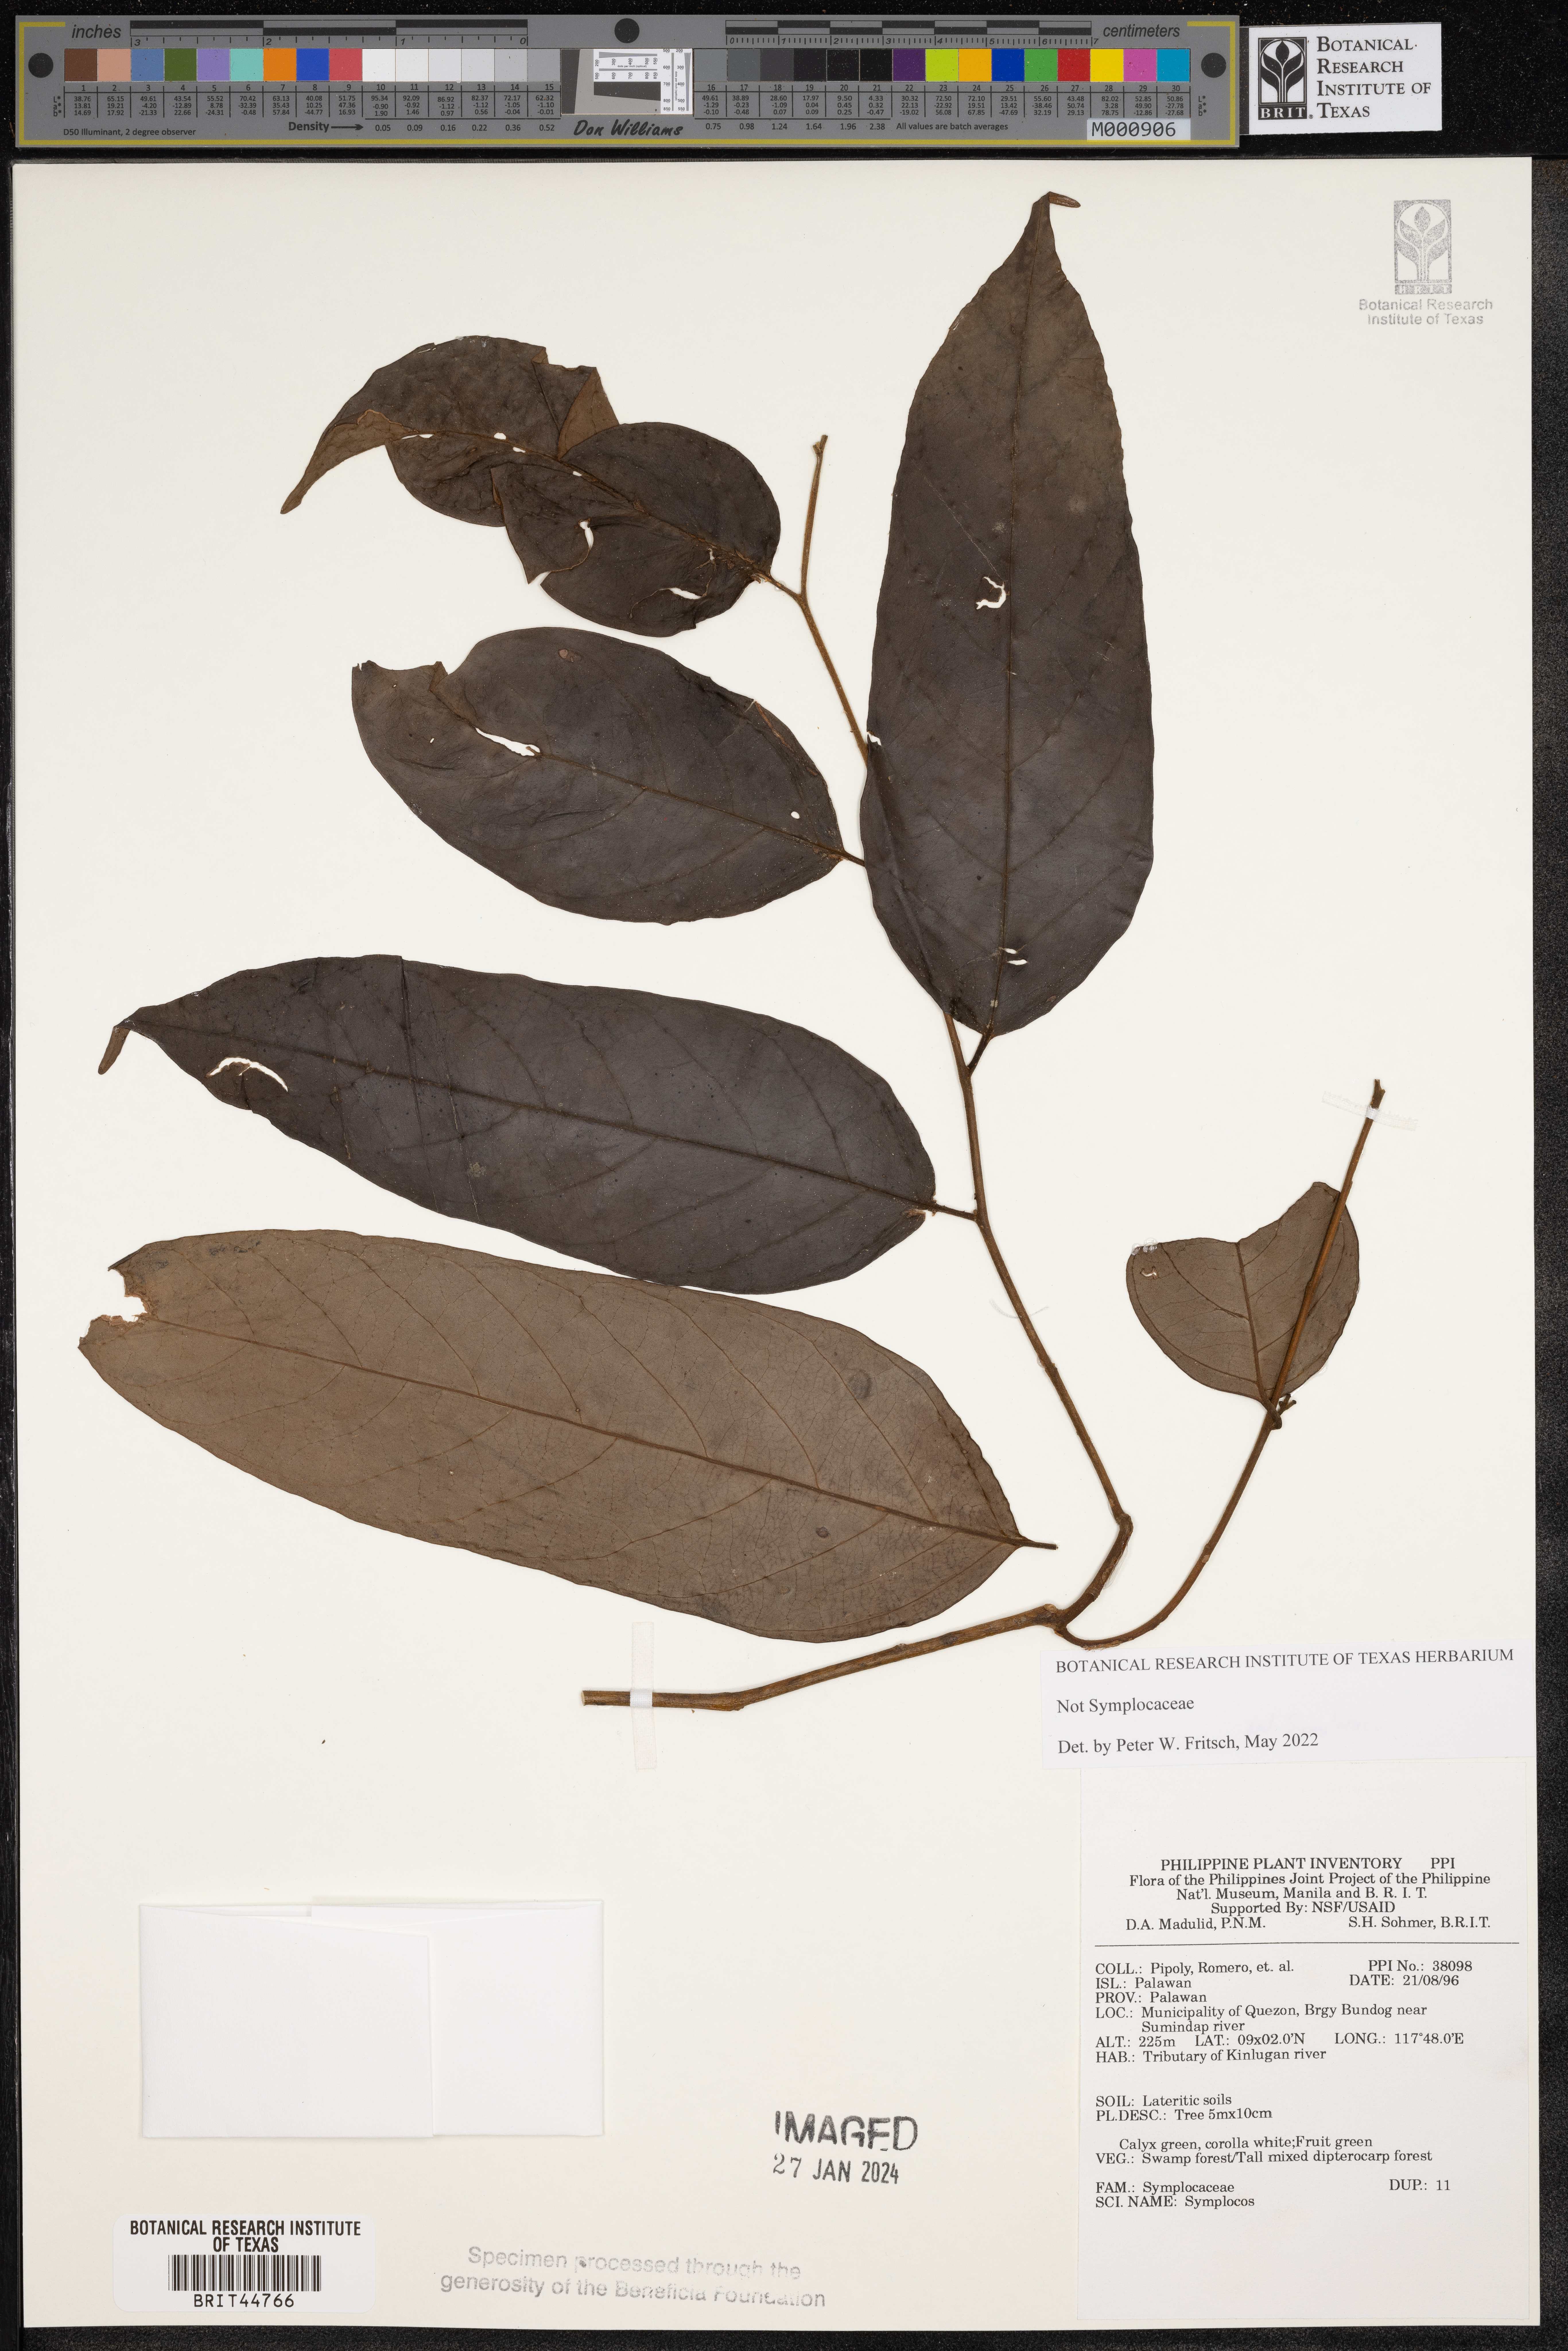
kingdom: Plantae
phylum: Tracheophyta
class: Magnoliopsida
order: Ericales
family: Symplocaceae
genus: Symplocos
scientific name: Symplocos
